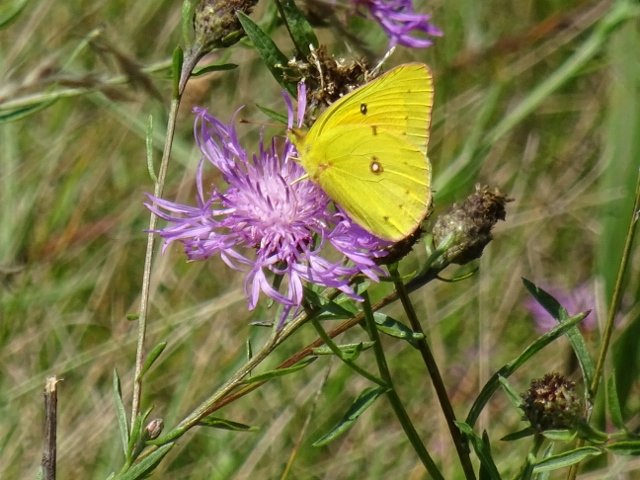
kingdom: Animalia
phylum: Arthropoda
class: Insecta
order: Lepidoptera
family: Pieridae
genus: Colias
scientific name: Colias philodice
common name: Clouded Sulphur
